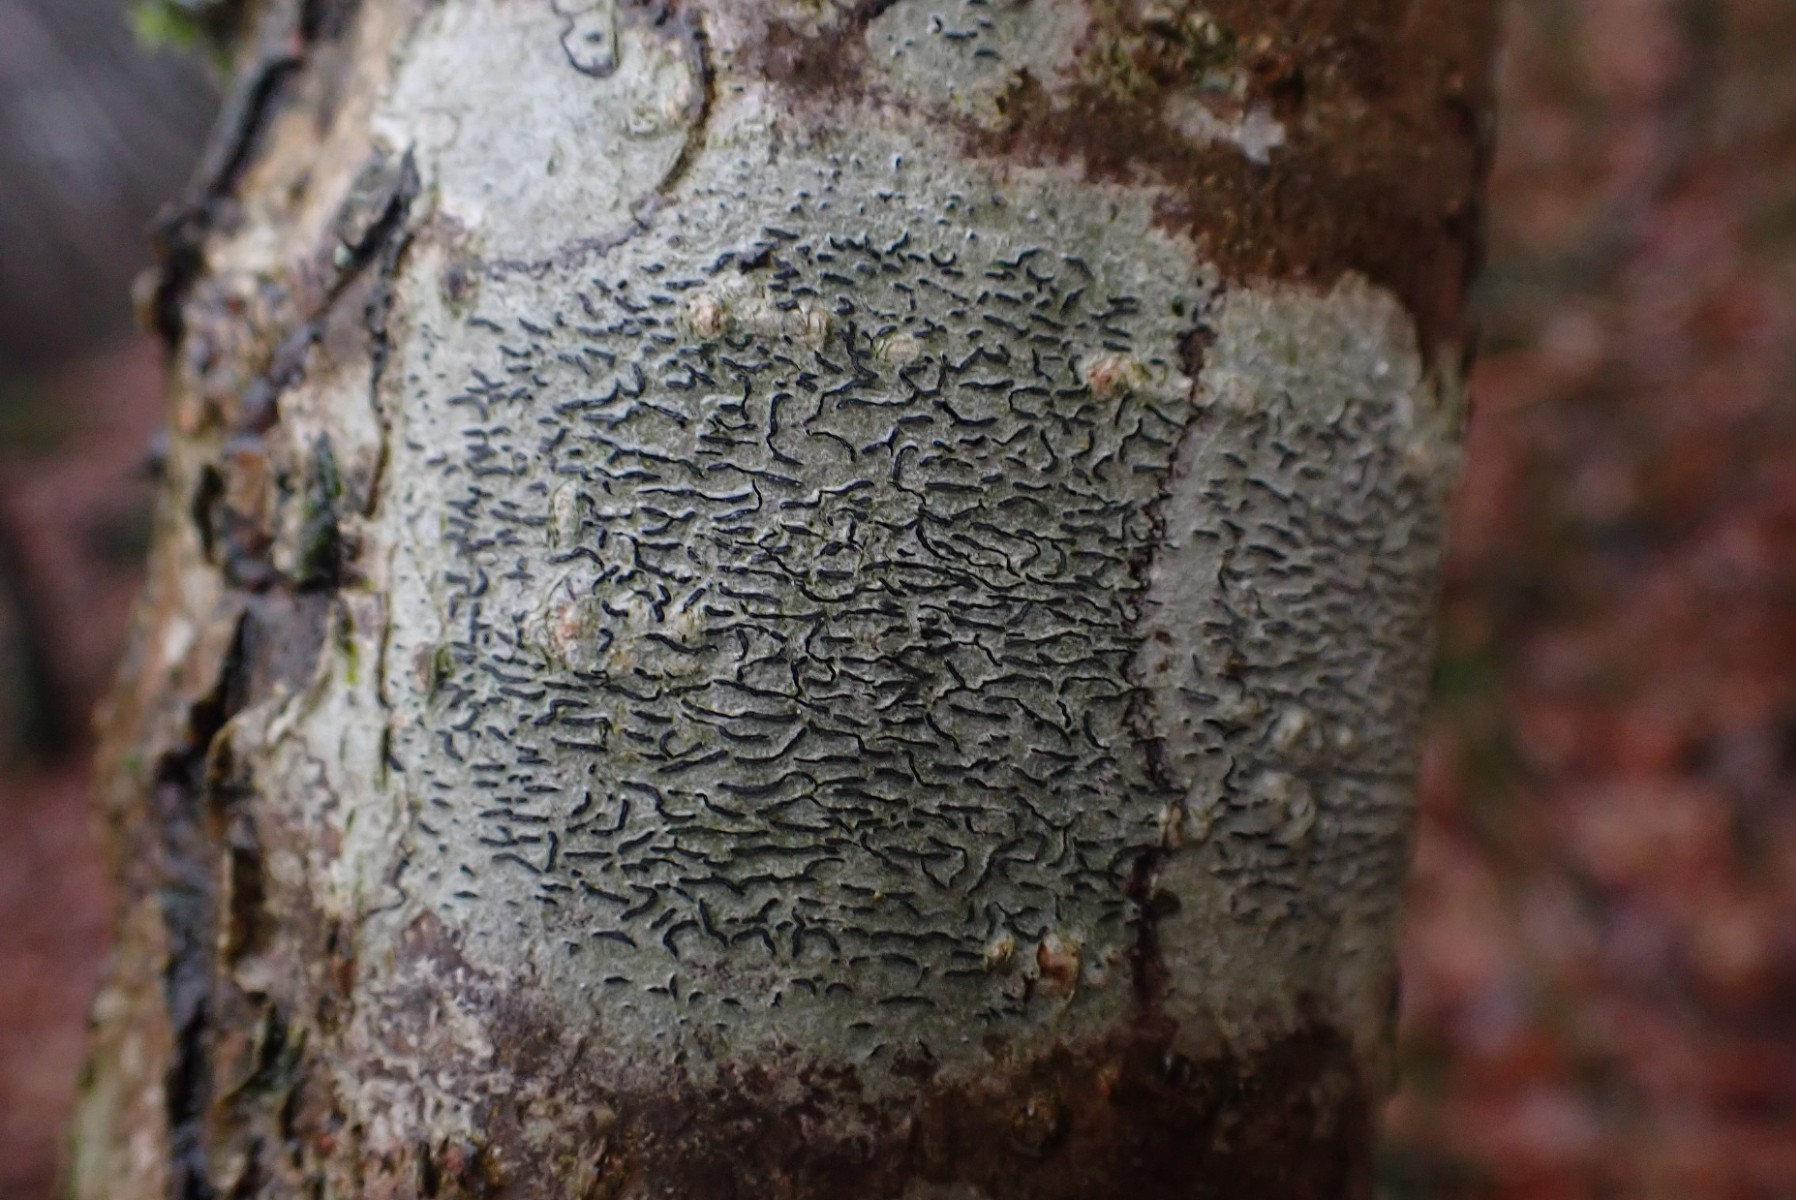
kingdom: Fungi
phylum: Ascomycota
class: Lecanoromycetes
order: Ostropales
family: Graphidaceae
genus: Graphis
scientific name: Graphis scripta
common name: almindelig skriftlav
